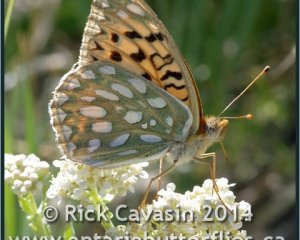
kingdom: Animalia
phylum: Arthropoda
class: Insecta
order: Lepidoptera
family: Nymphalidae
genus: Speyeria
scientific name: Speyeria callippe
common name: Callippe Fritillary
